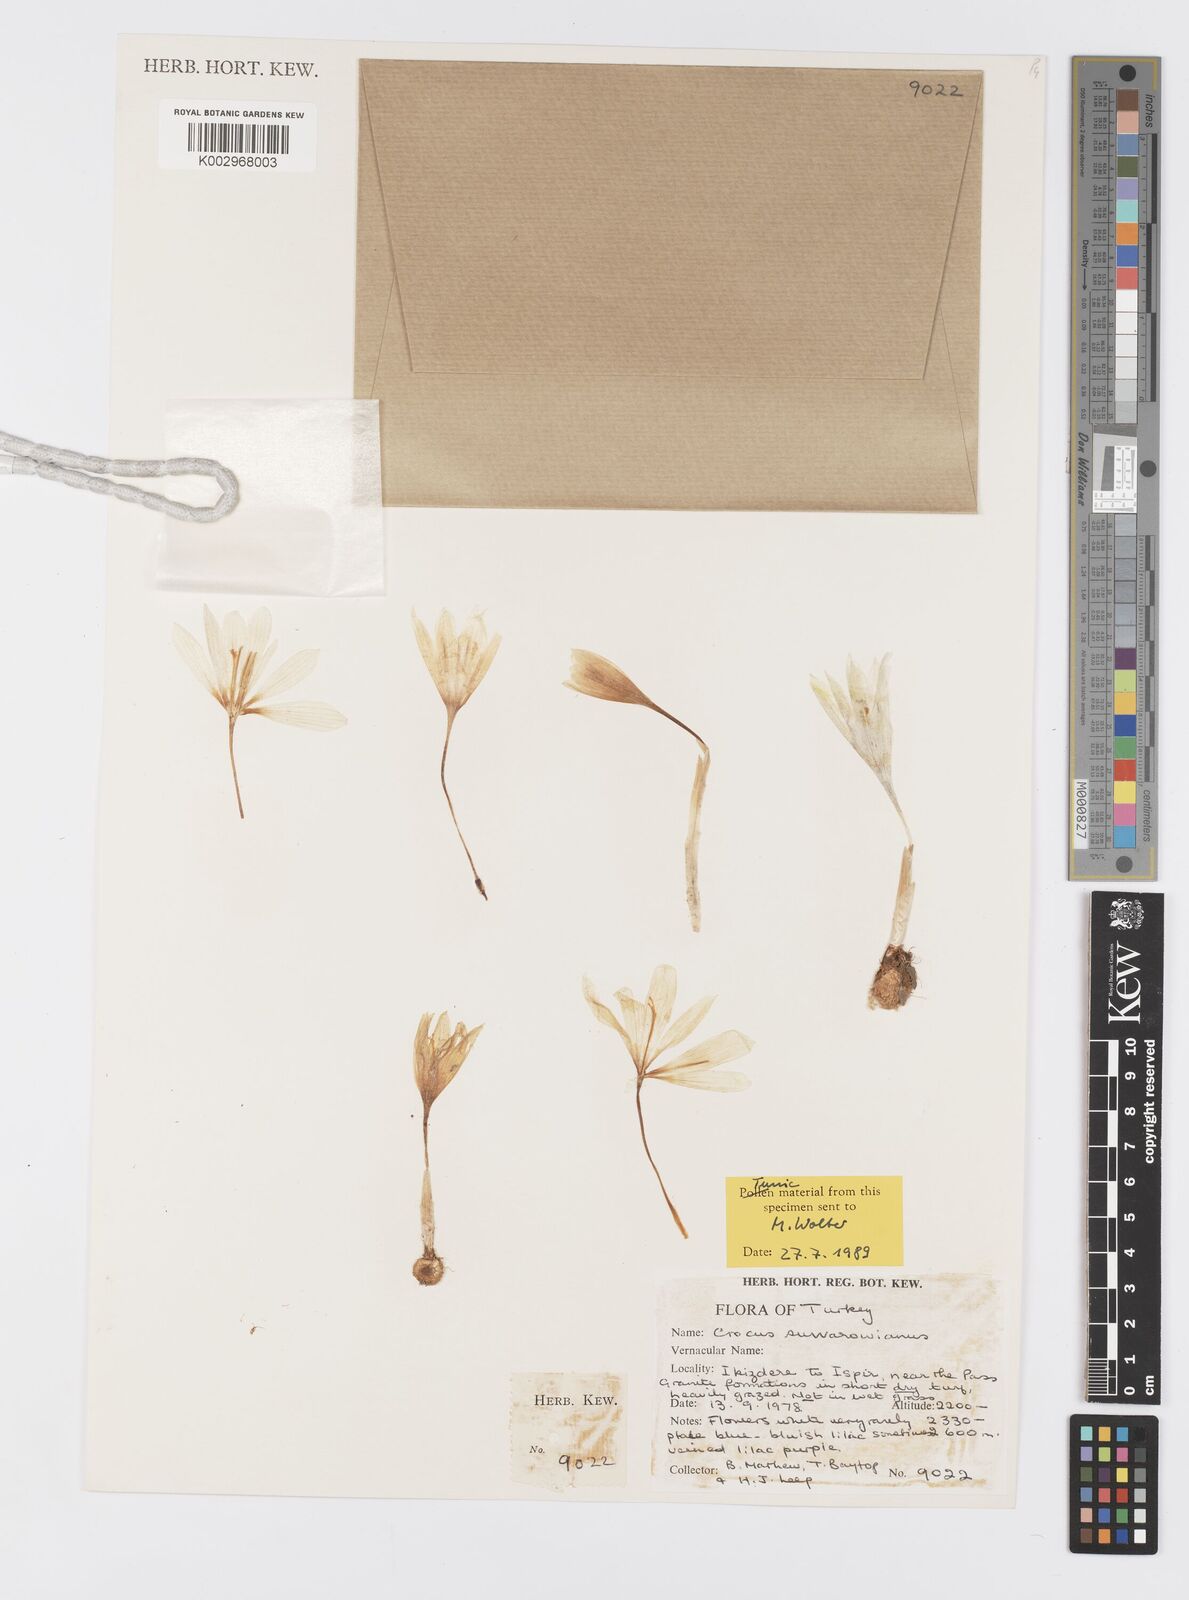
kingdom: Plantae
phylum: Tracheophyta
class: Liliopsida
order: Asparagales
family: Iridaceae
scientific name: Iridaceae
